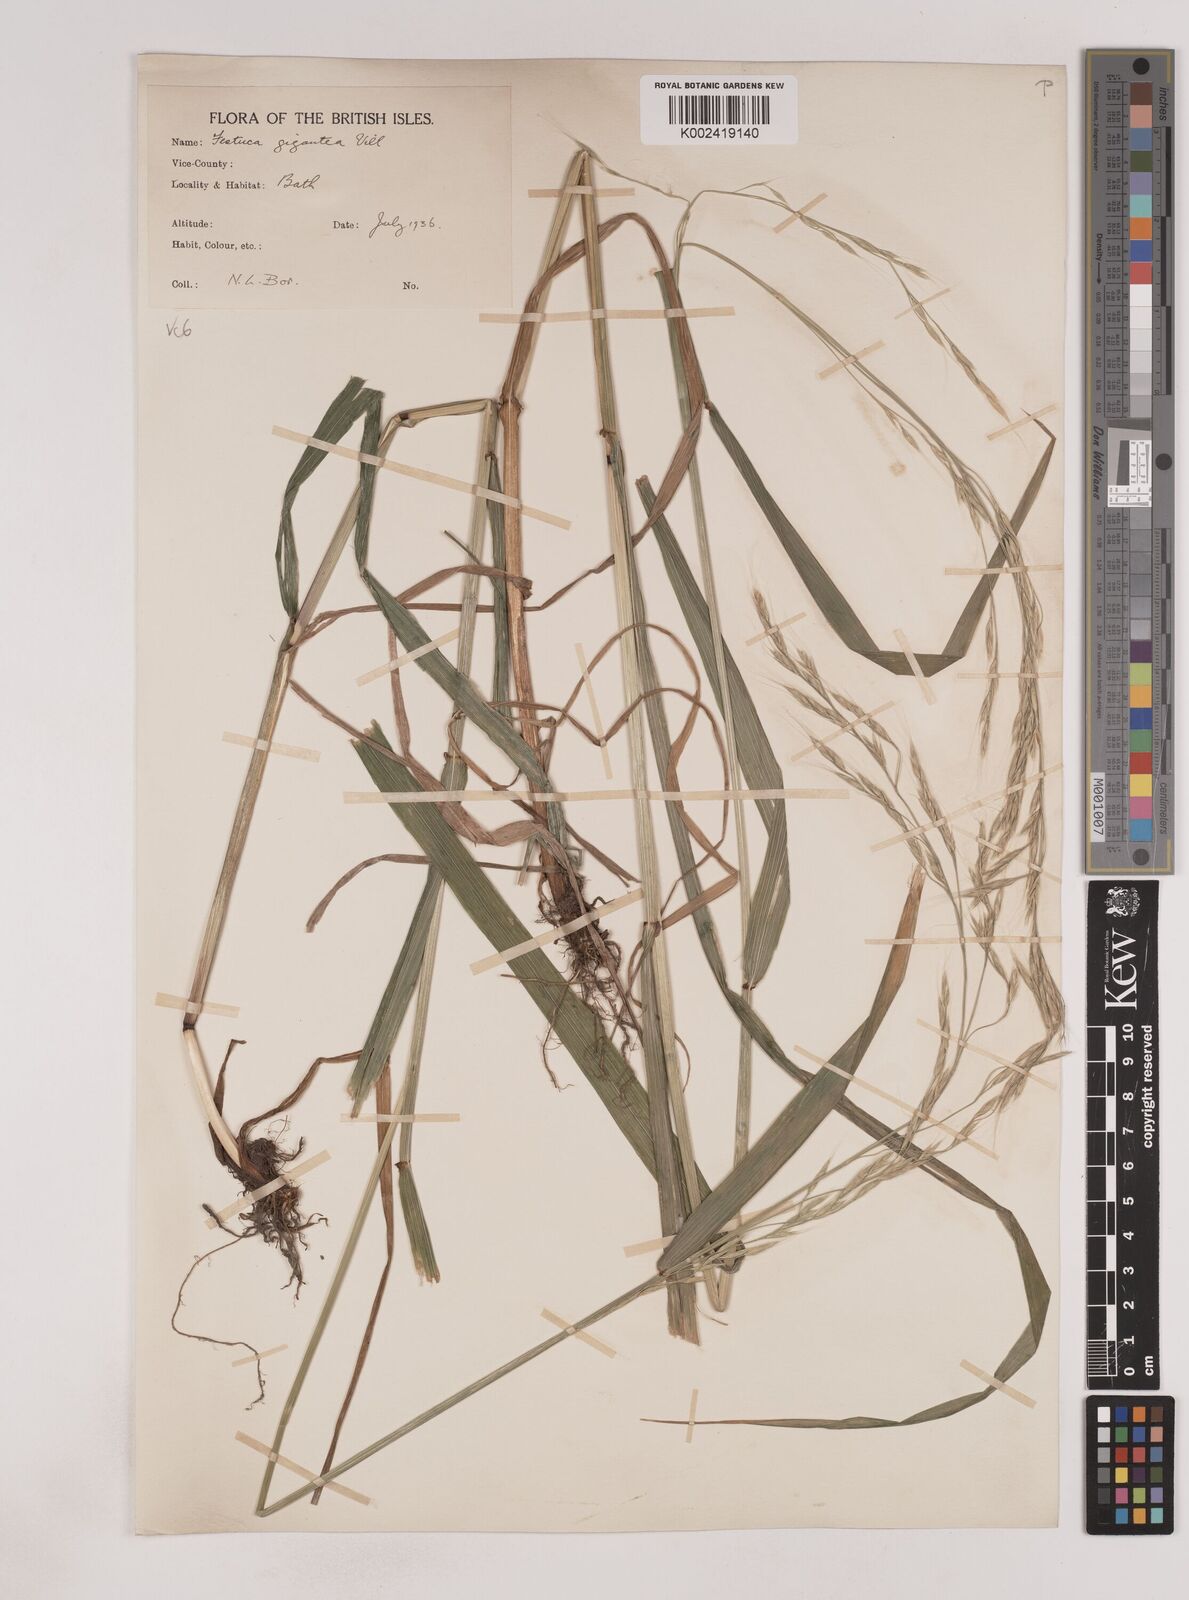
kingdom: Plantae
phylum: Tracheophyta
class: Liliopsida
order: Poales
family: Poaceae
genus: Lolium
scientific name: Lolium giganteum
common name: Giant fescue
